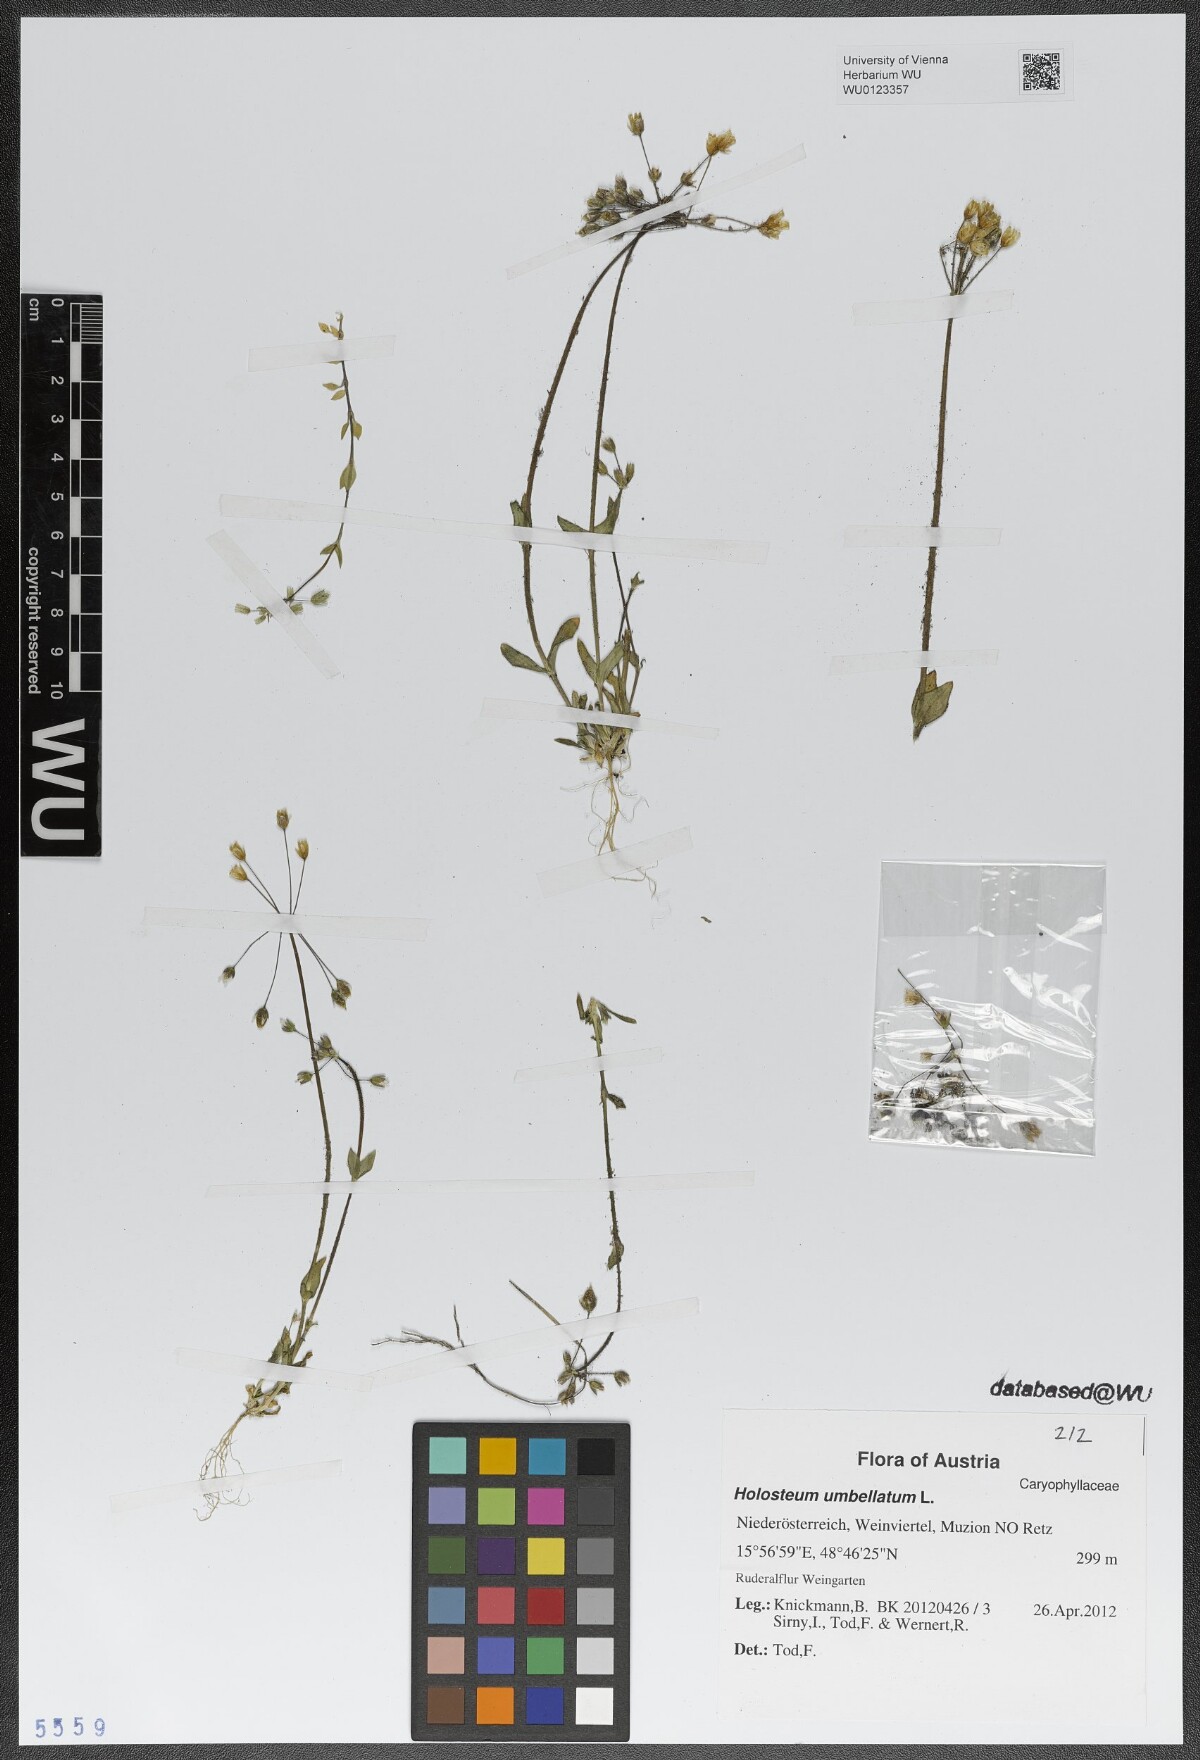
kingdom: Plantae
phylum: Tracheophyta
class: Magnoliopsida
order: Caryophyllales
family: Caryophyllaceae
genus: Holosteum
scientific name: Holosteum umbellatum
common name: Jagged chickweed
